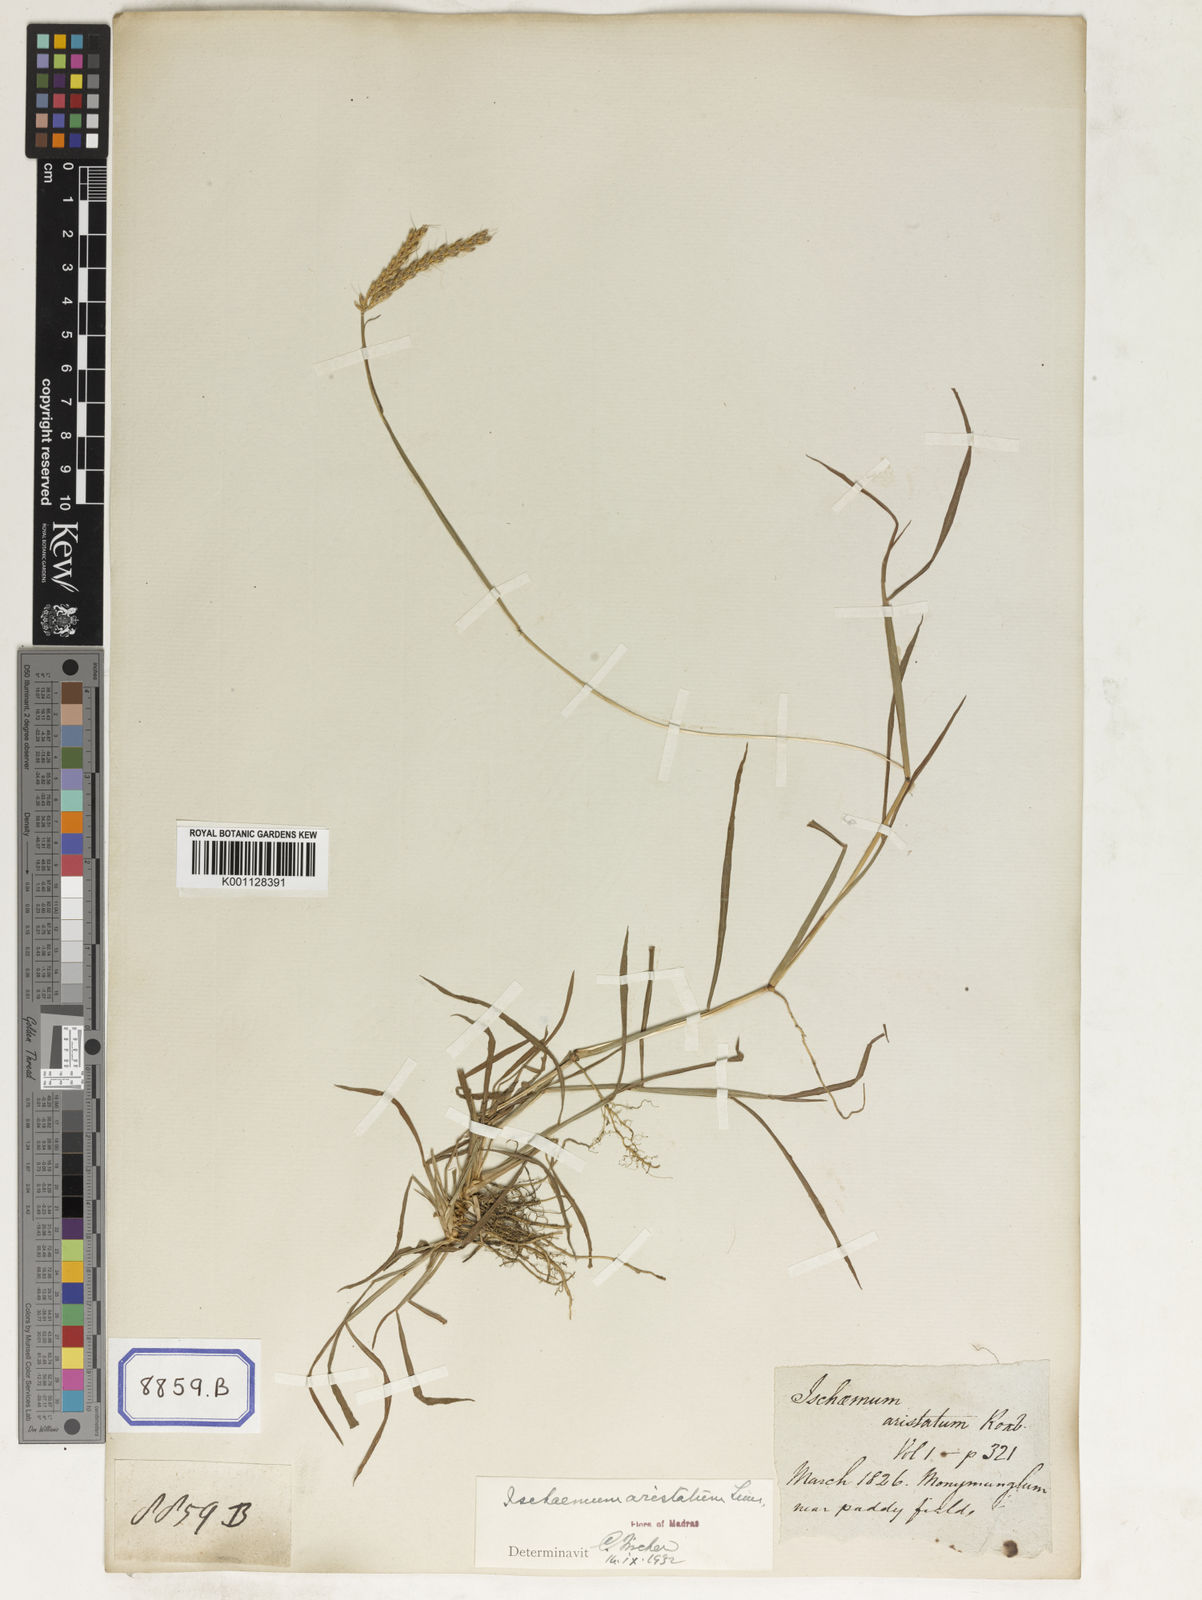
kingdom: Plantae
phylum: Tracheophyta
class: Liliopsida
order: Poales
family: Poaceae
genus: Spodiopogon
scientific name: Spodiopogon
